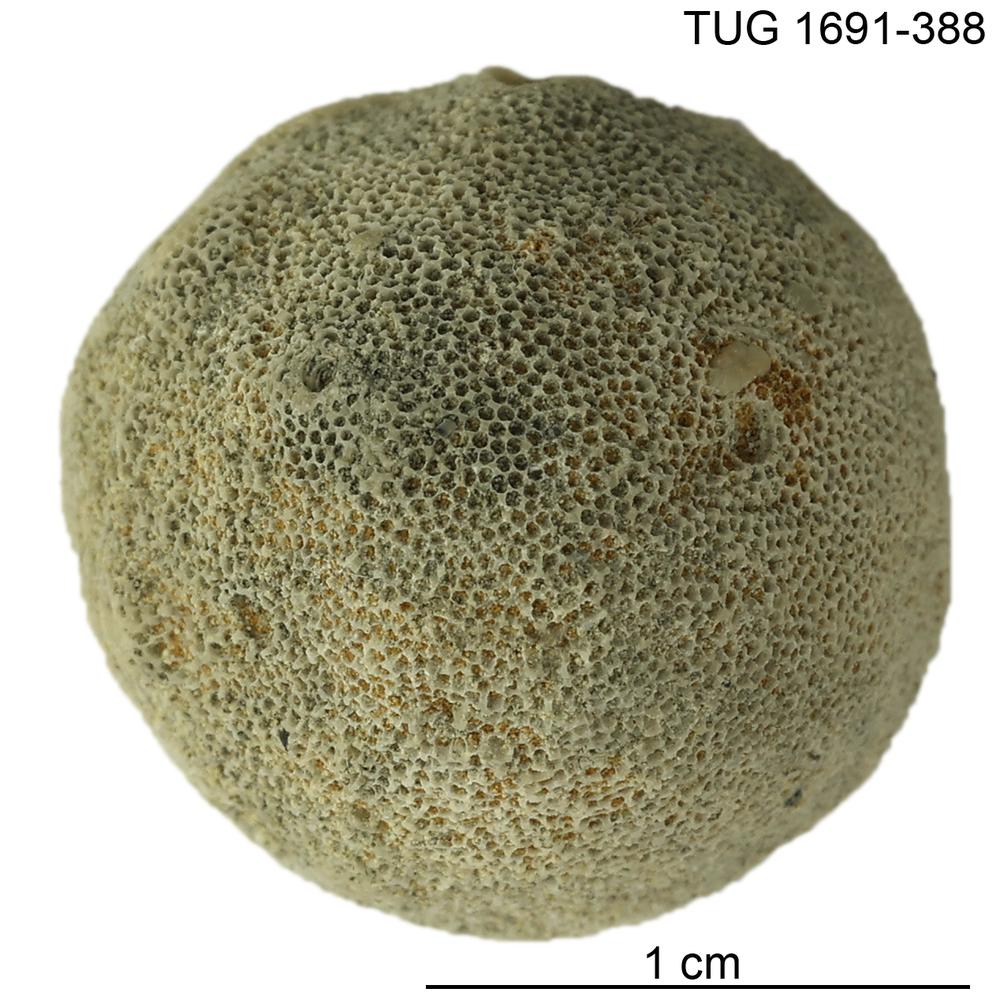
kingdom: Animalia
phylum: Bryozoa
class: Stenolaemata
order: Trepostomatida
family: Diplotrypidae
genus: Diplotrypa
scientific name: Diplotrypa
